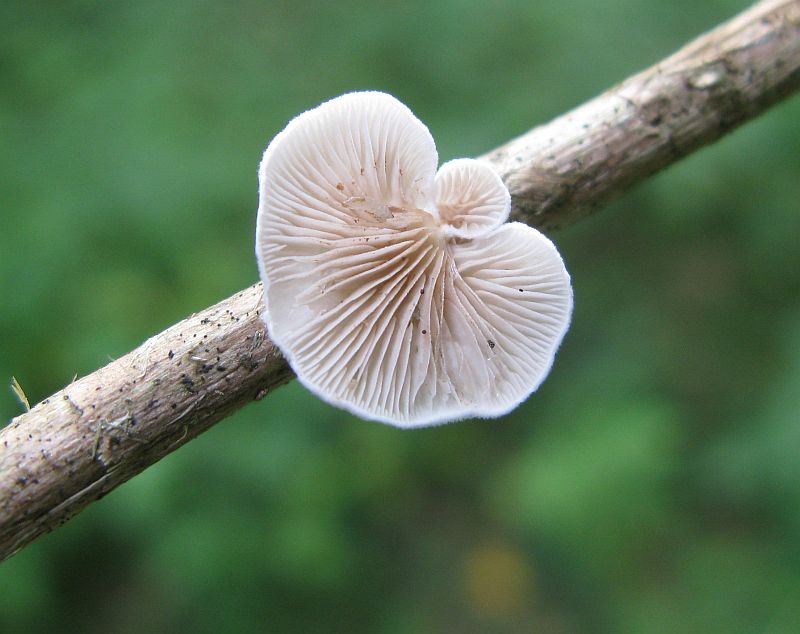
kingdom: Fungi
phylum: Basidiomycota
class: Agaricomycetes
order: Agaricales
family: Crepidotaceae
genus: Crepidotus
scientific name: Crepidotus variabilis
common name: forskelligformet muslingesvamp
